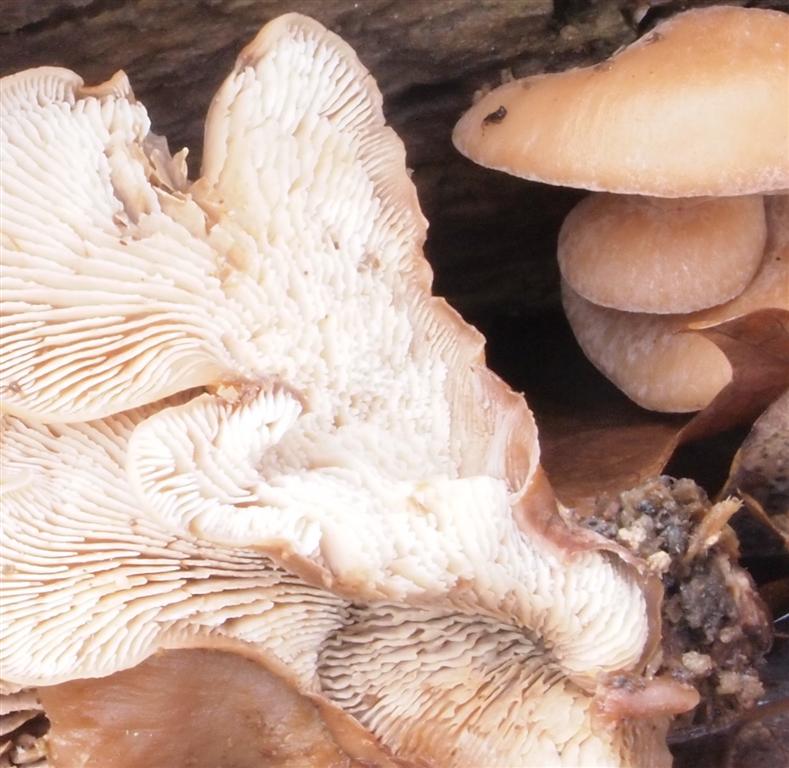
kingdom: Fungi
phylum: Basidiomycota
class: Agaricomycetes
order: Russulales
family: Auriscalpiaceae
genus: Lentinellus
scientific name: Lentinellus ursinus
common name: børstehåret savbladhat
